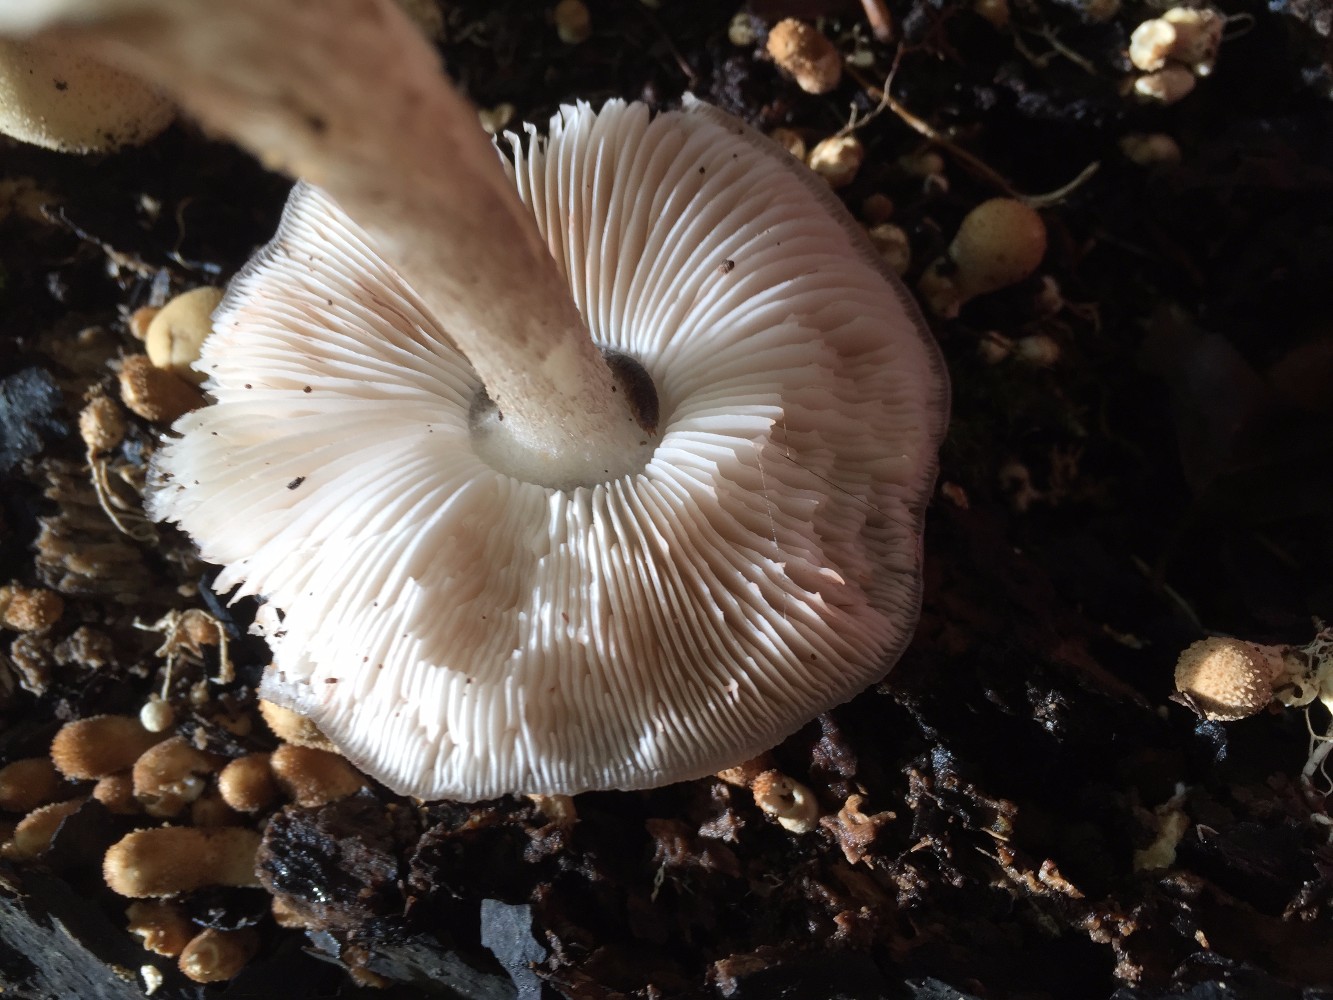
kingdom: Fungi
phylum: Basidiomycota
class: Agaricomycetes
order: Agaricales
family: Pluteaceae
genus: Pluteus
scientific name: Pluteus cervinus
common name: sodfarvet skærmhat
